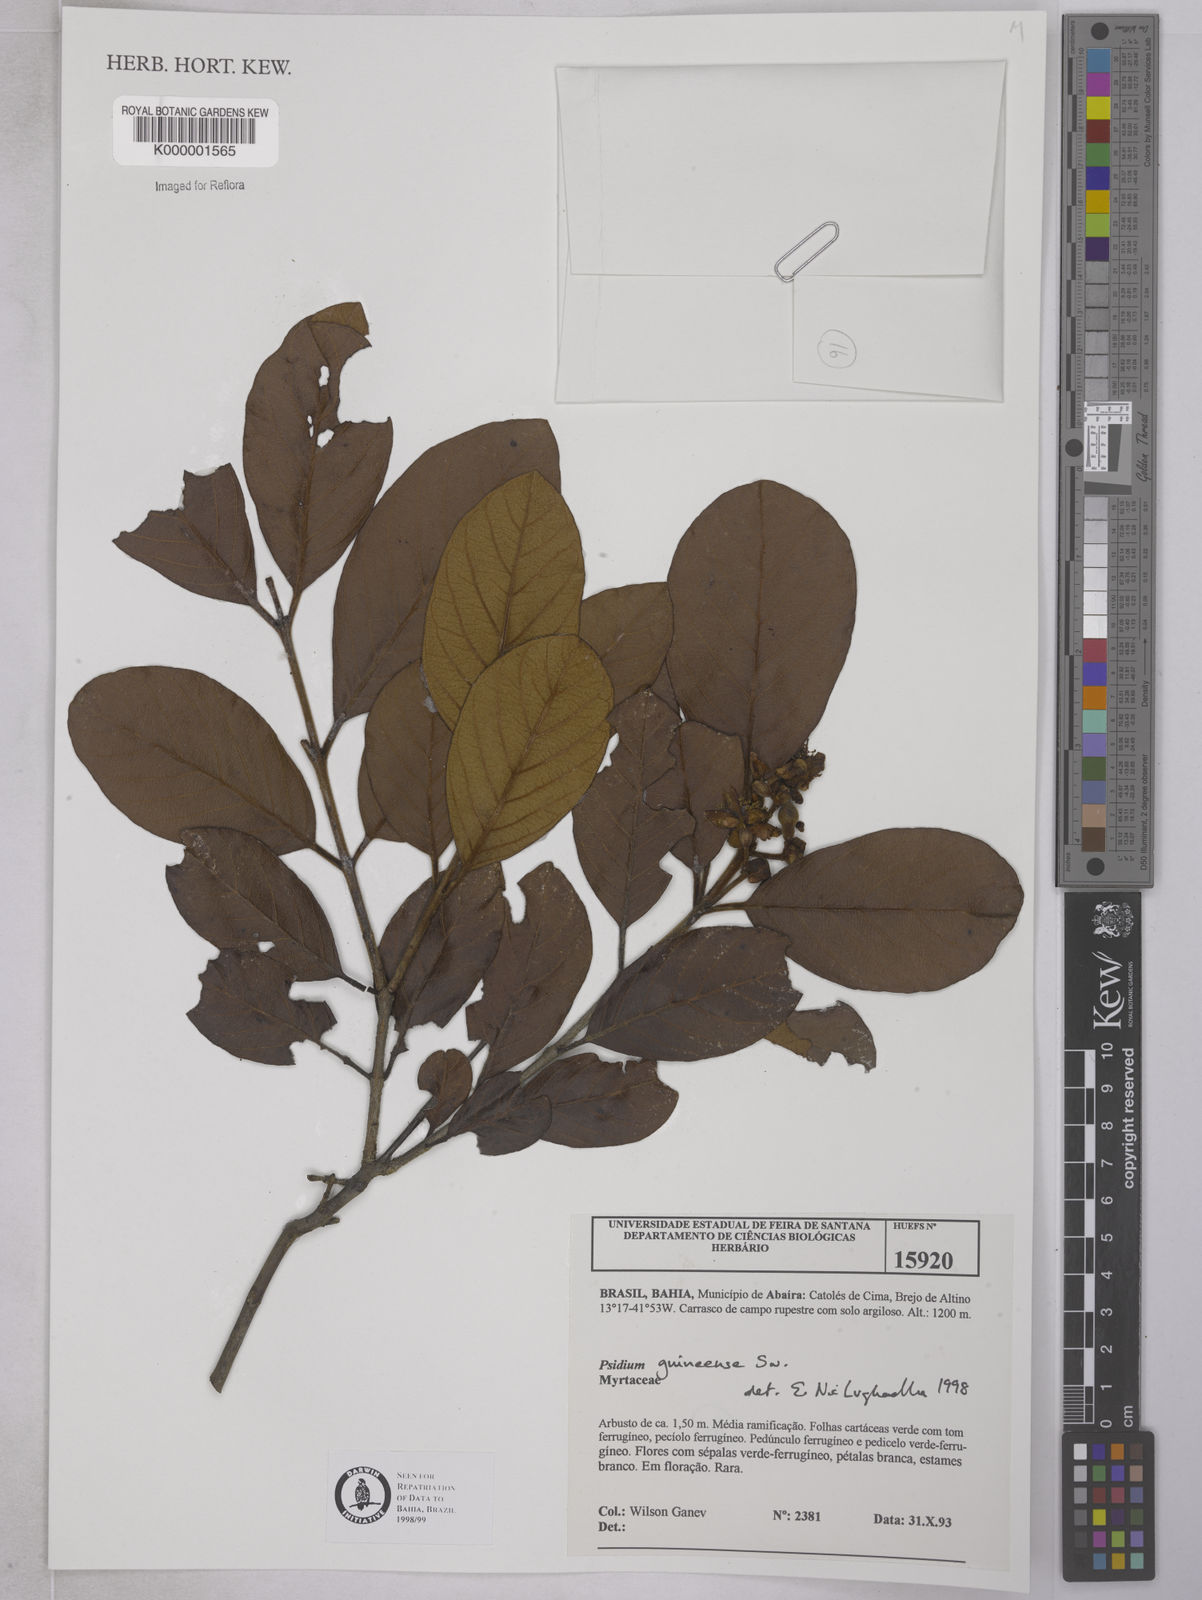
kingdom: Plantae
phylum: Tracheophyta
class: Magnoliopsida
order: Myrtales
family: Myrtaceae
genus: Psidium
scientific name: Psidium guineense
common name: Brazilian guava
